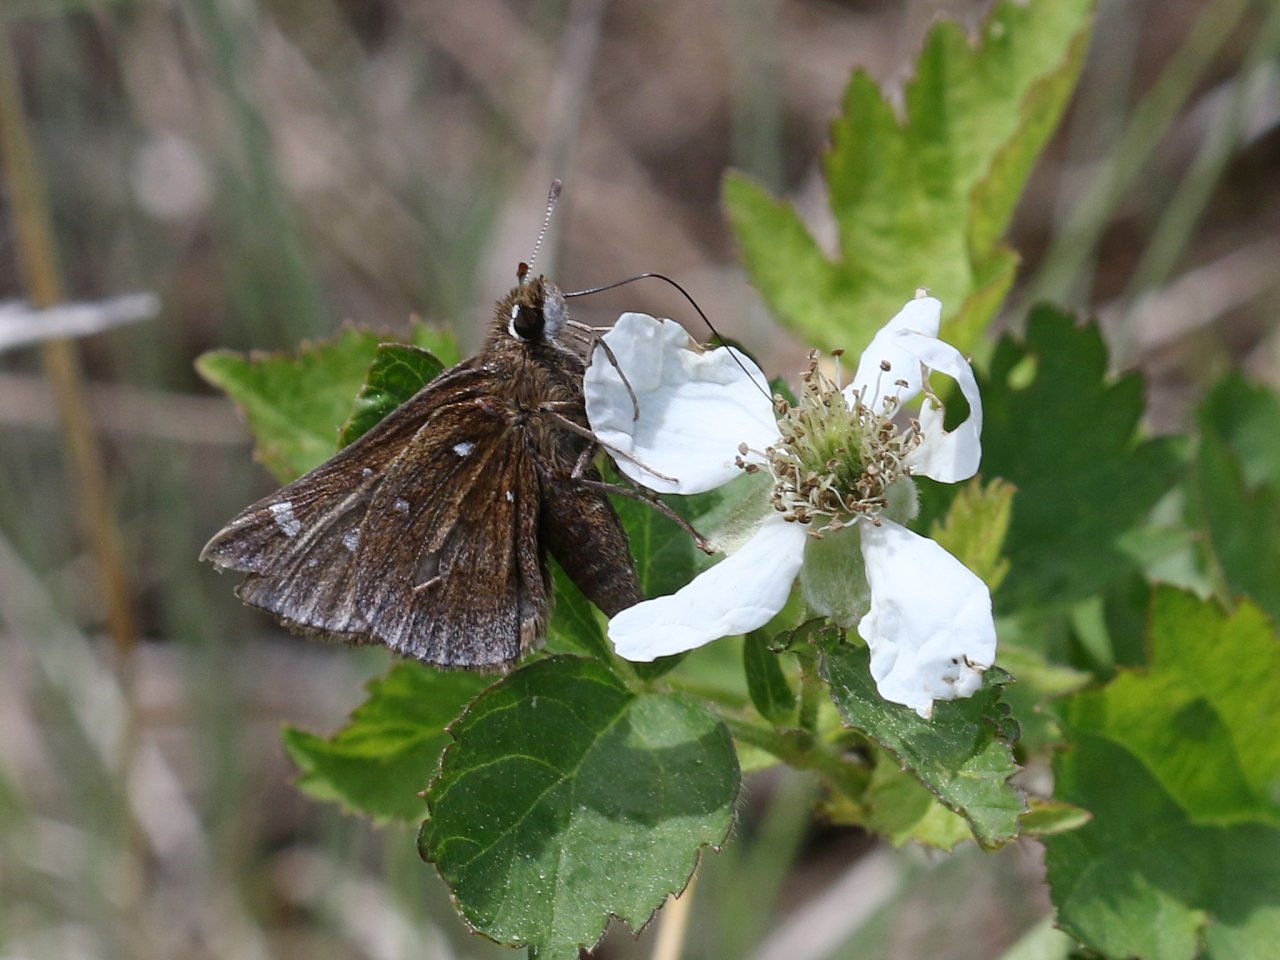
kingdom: Animalia
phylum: Arthropoda
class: Insecta
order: Lepidoptera
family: Hesperiidae
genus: Atrytonopsis
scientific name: Atrytonopsis hianna
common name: Dusted Skipper
